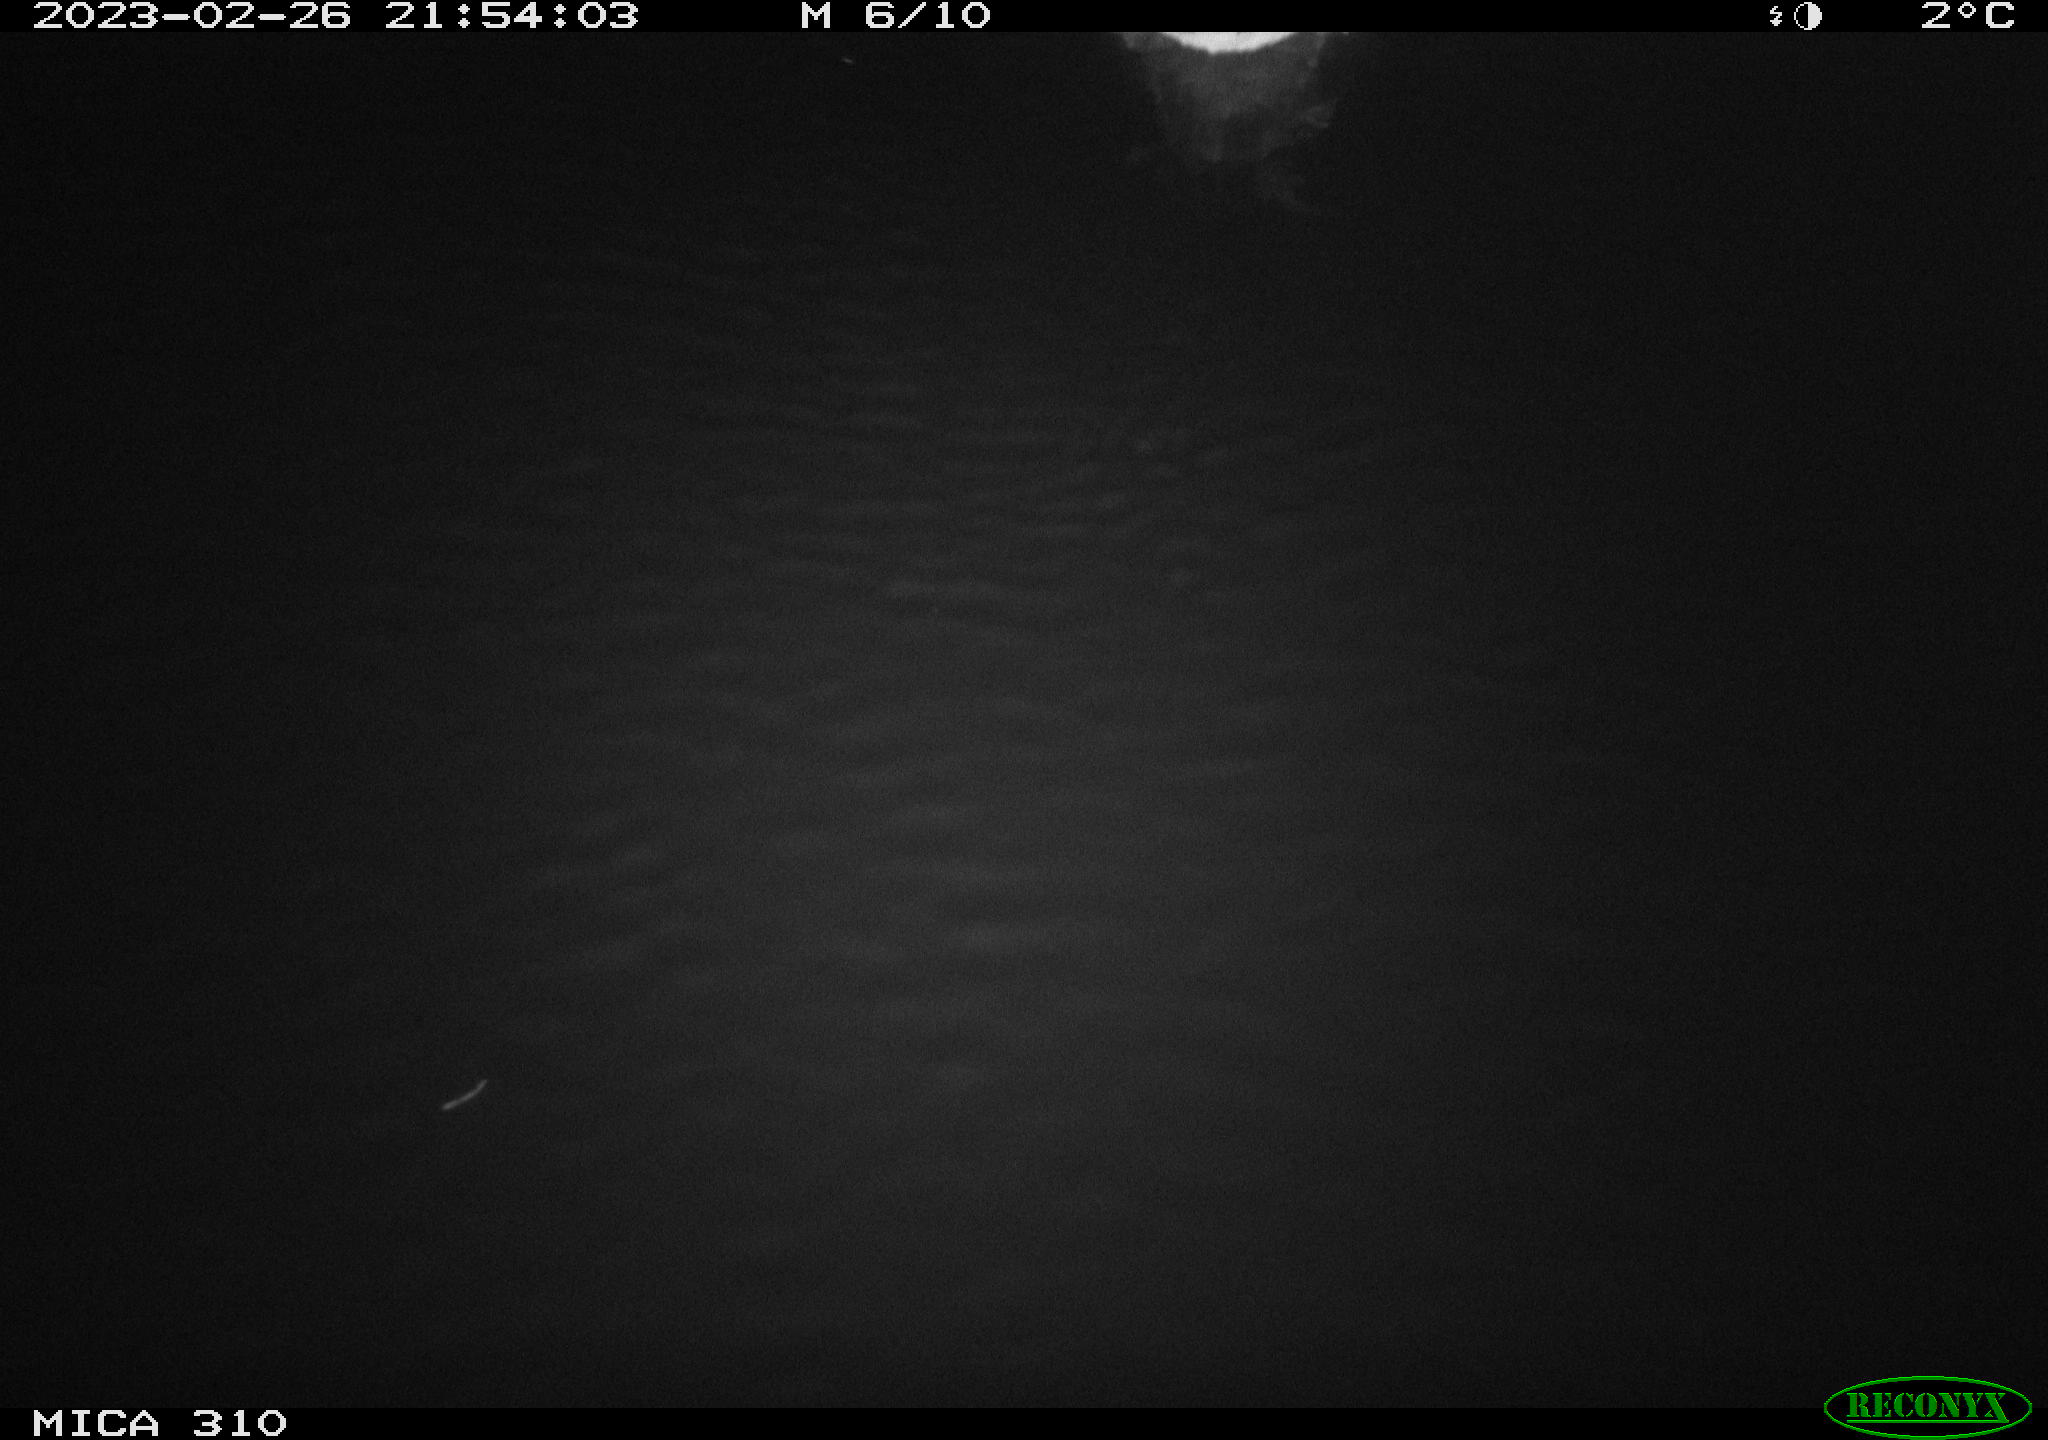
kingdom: Animalia
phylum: Chordata
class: Aves
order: Pelecaniformes
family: Ardeidae
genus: Ardea
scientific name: Ardea cinerea
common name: Grey heron
